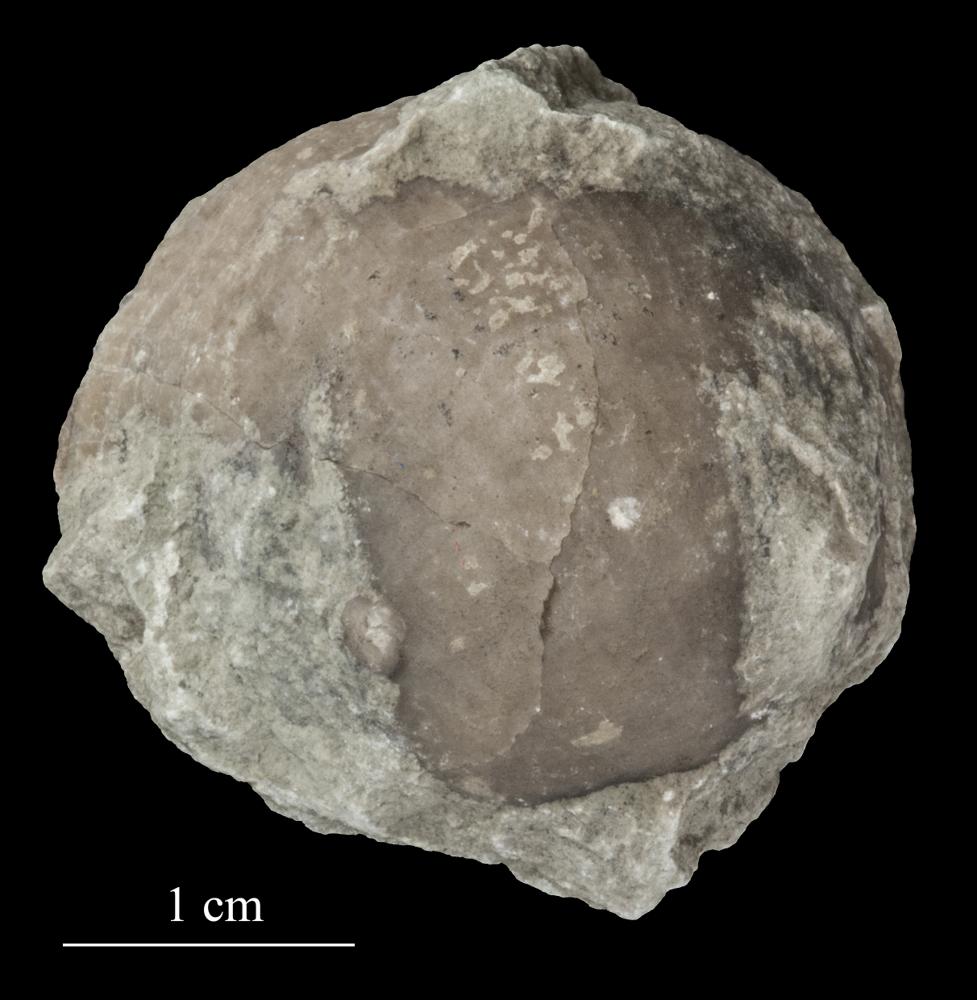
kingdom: Animalia
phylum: Brachiopoda
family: Strophomenidae
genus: Tallinnites
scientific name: Tallinnites Oepikina imbrexoidea
